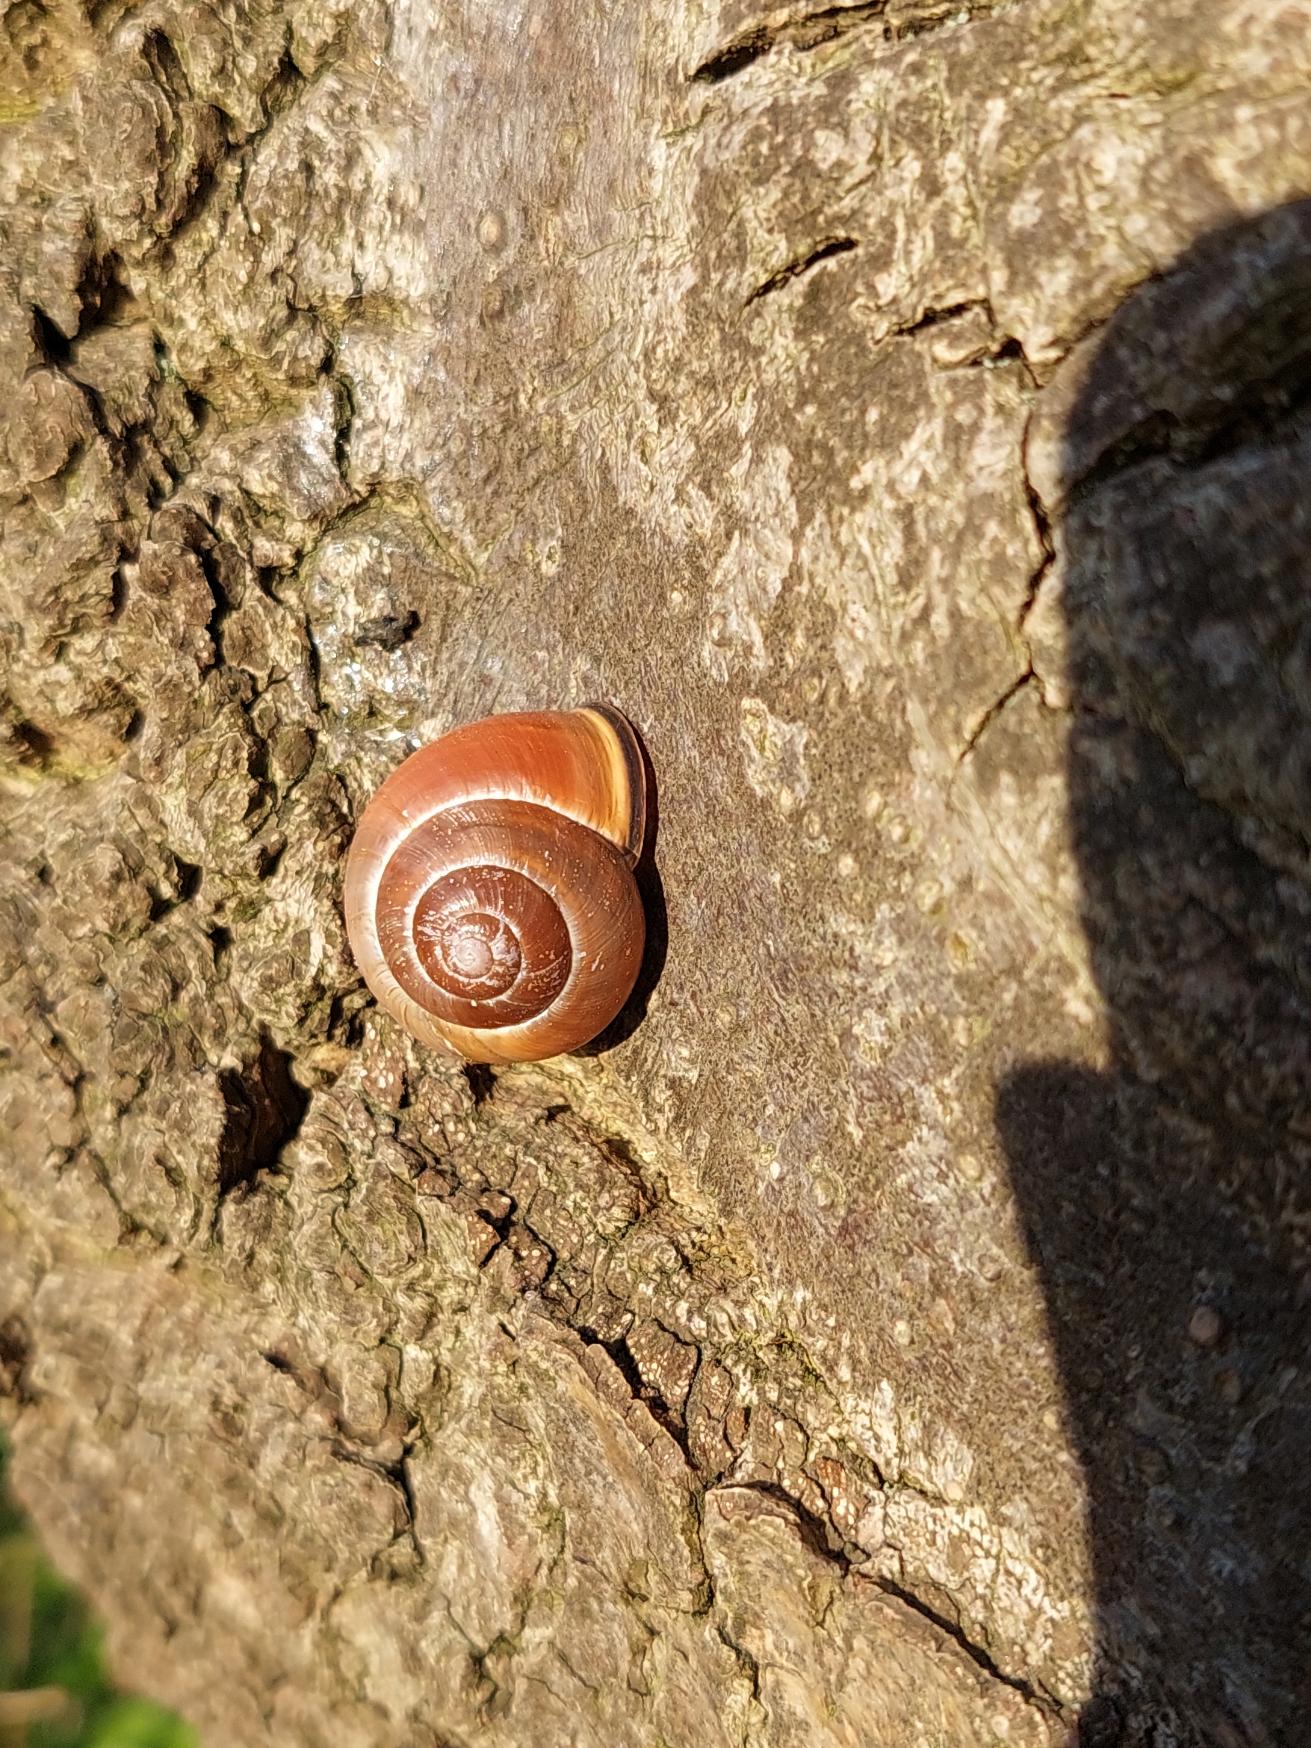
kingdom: Animalia
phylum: Mollusca
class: Gastropoda
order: Stylommatophora
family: Helicidae
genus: Cepaea
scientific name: Cepaea nemoralis
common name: Lundsnegl
